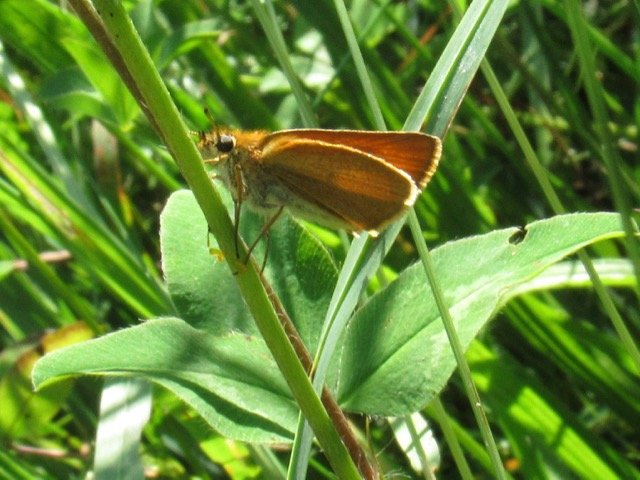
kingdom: Animalia
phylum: Arthropoda
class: Insecta
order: Lepidoptera
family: Hesperiidae
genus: Thymelicus
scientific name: Thymelicus lineola
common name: European Skipper
